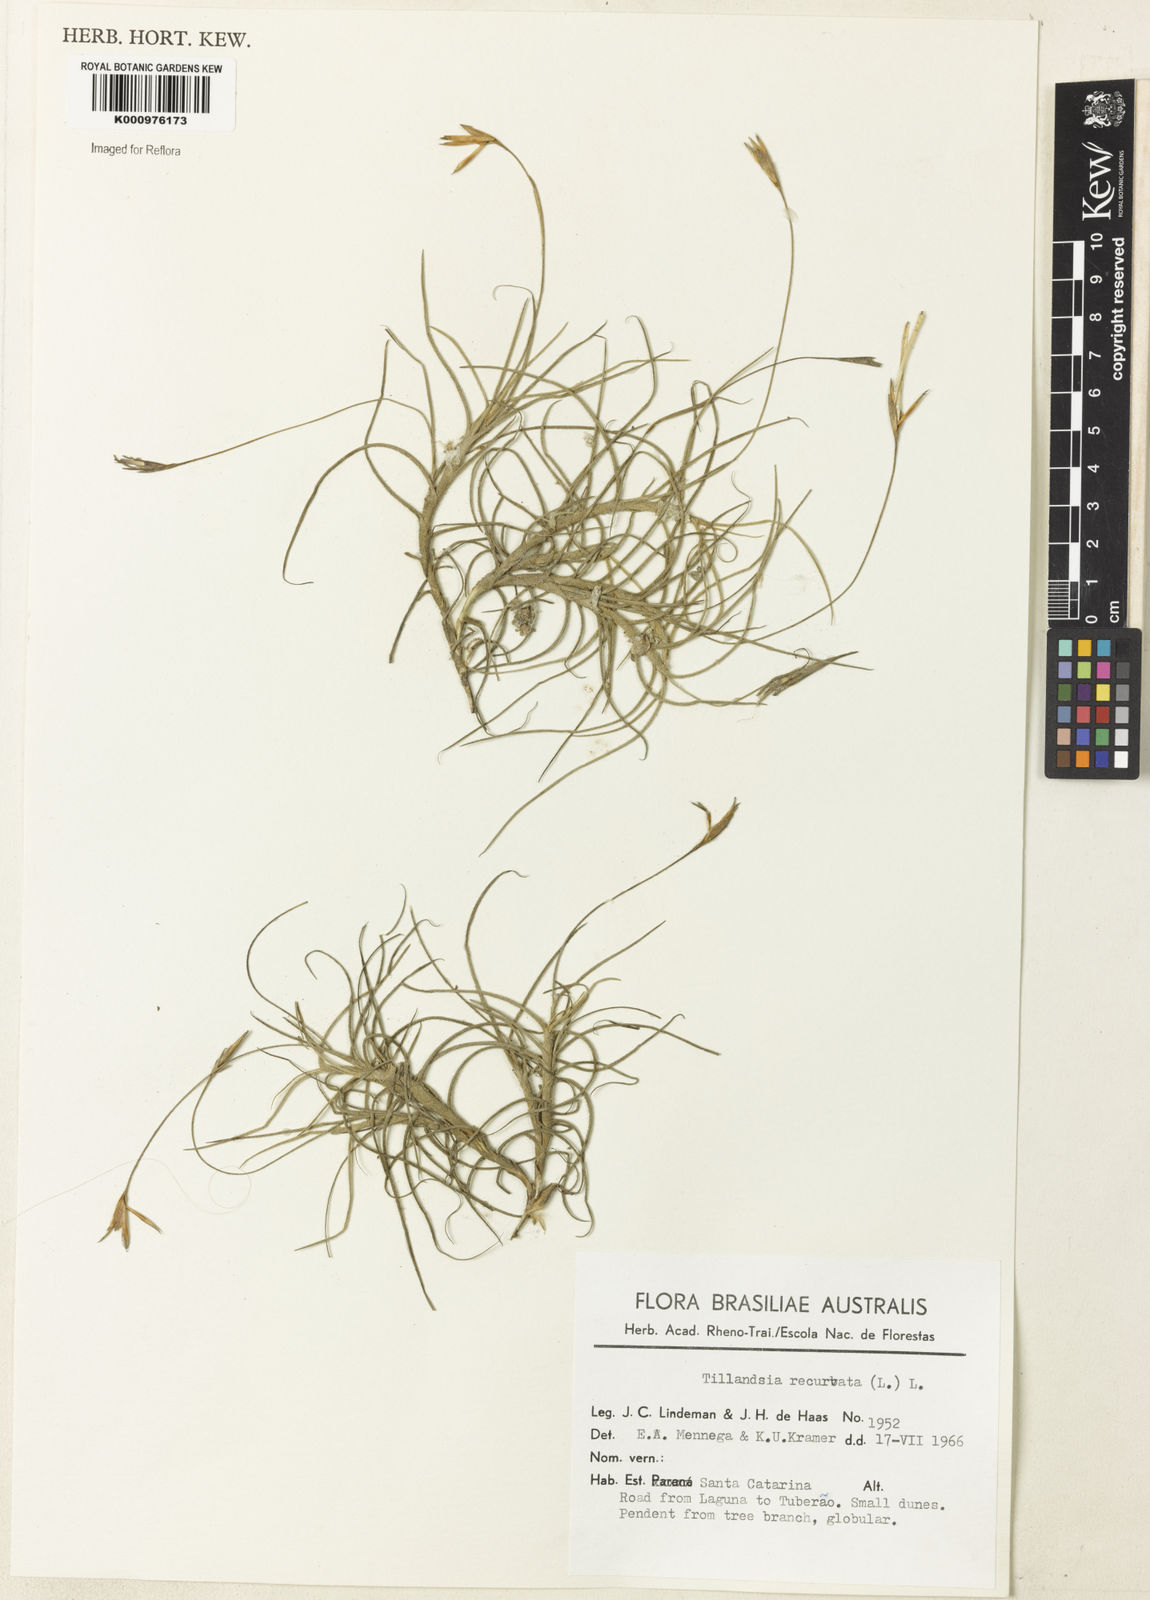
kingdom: Plantae
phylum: Tracheophyta
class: Liliopsida
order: Poales
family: Bromeliaceae
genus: Tillandsia
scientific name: Tillandsia recurvata
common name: Small ballmoss
